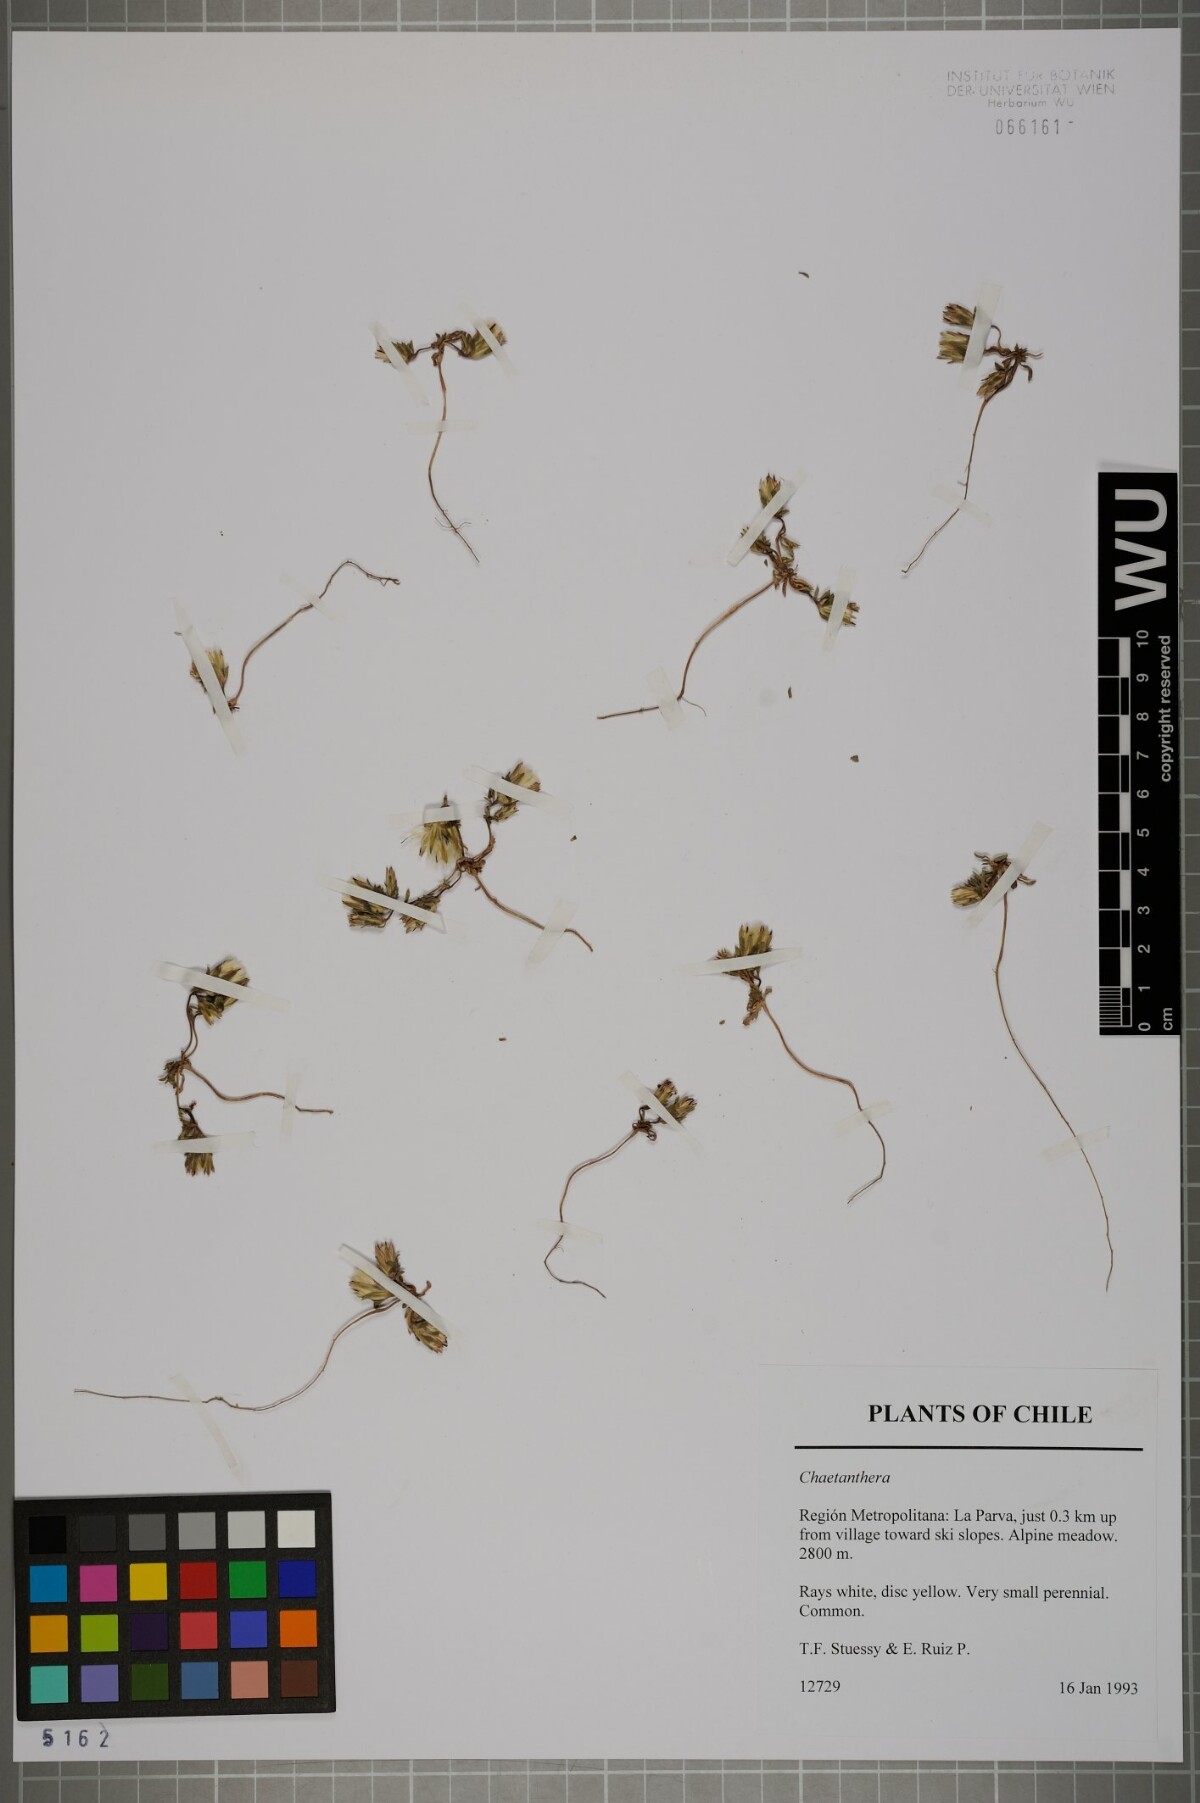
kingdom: Plantae
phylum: Tracheophyta
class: Magnoliopsida
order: Asterales
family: Asteraceae
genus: Chaetanthera
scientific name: Chaetanthera
